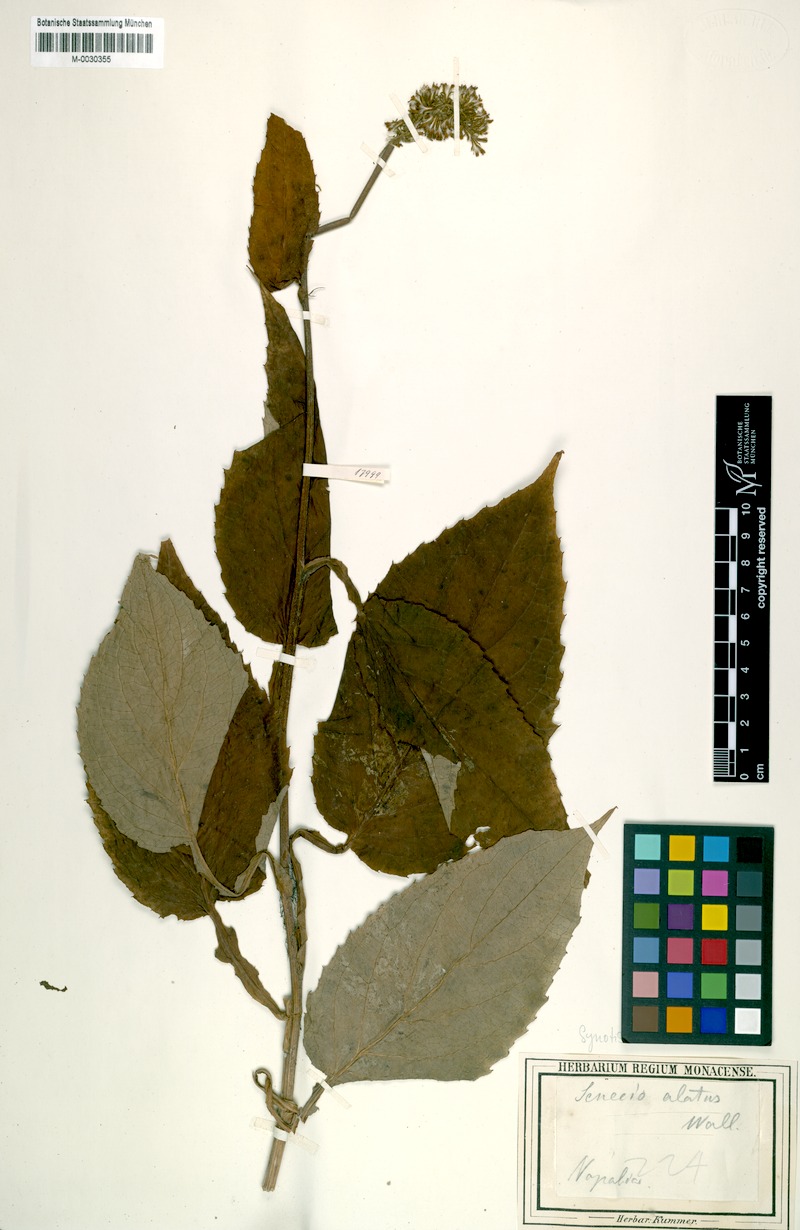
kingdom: Plantae
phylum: Tracheophyta
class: Magnoliopsida
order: Asterales
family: Asteraceae
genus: Synotis
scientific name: Synotis alata
